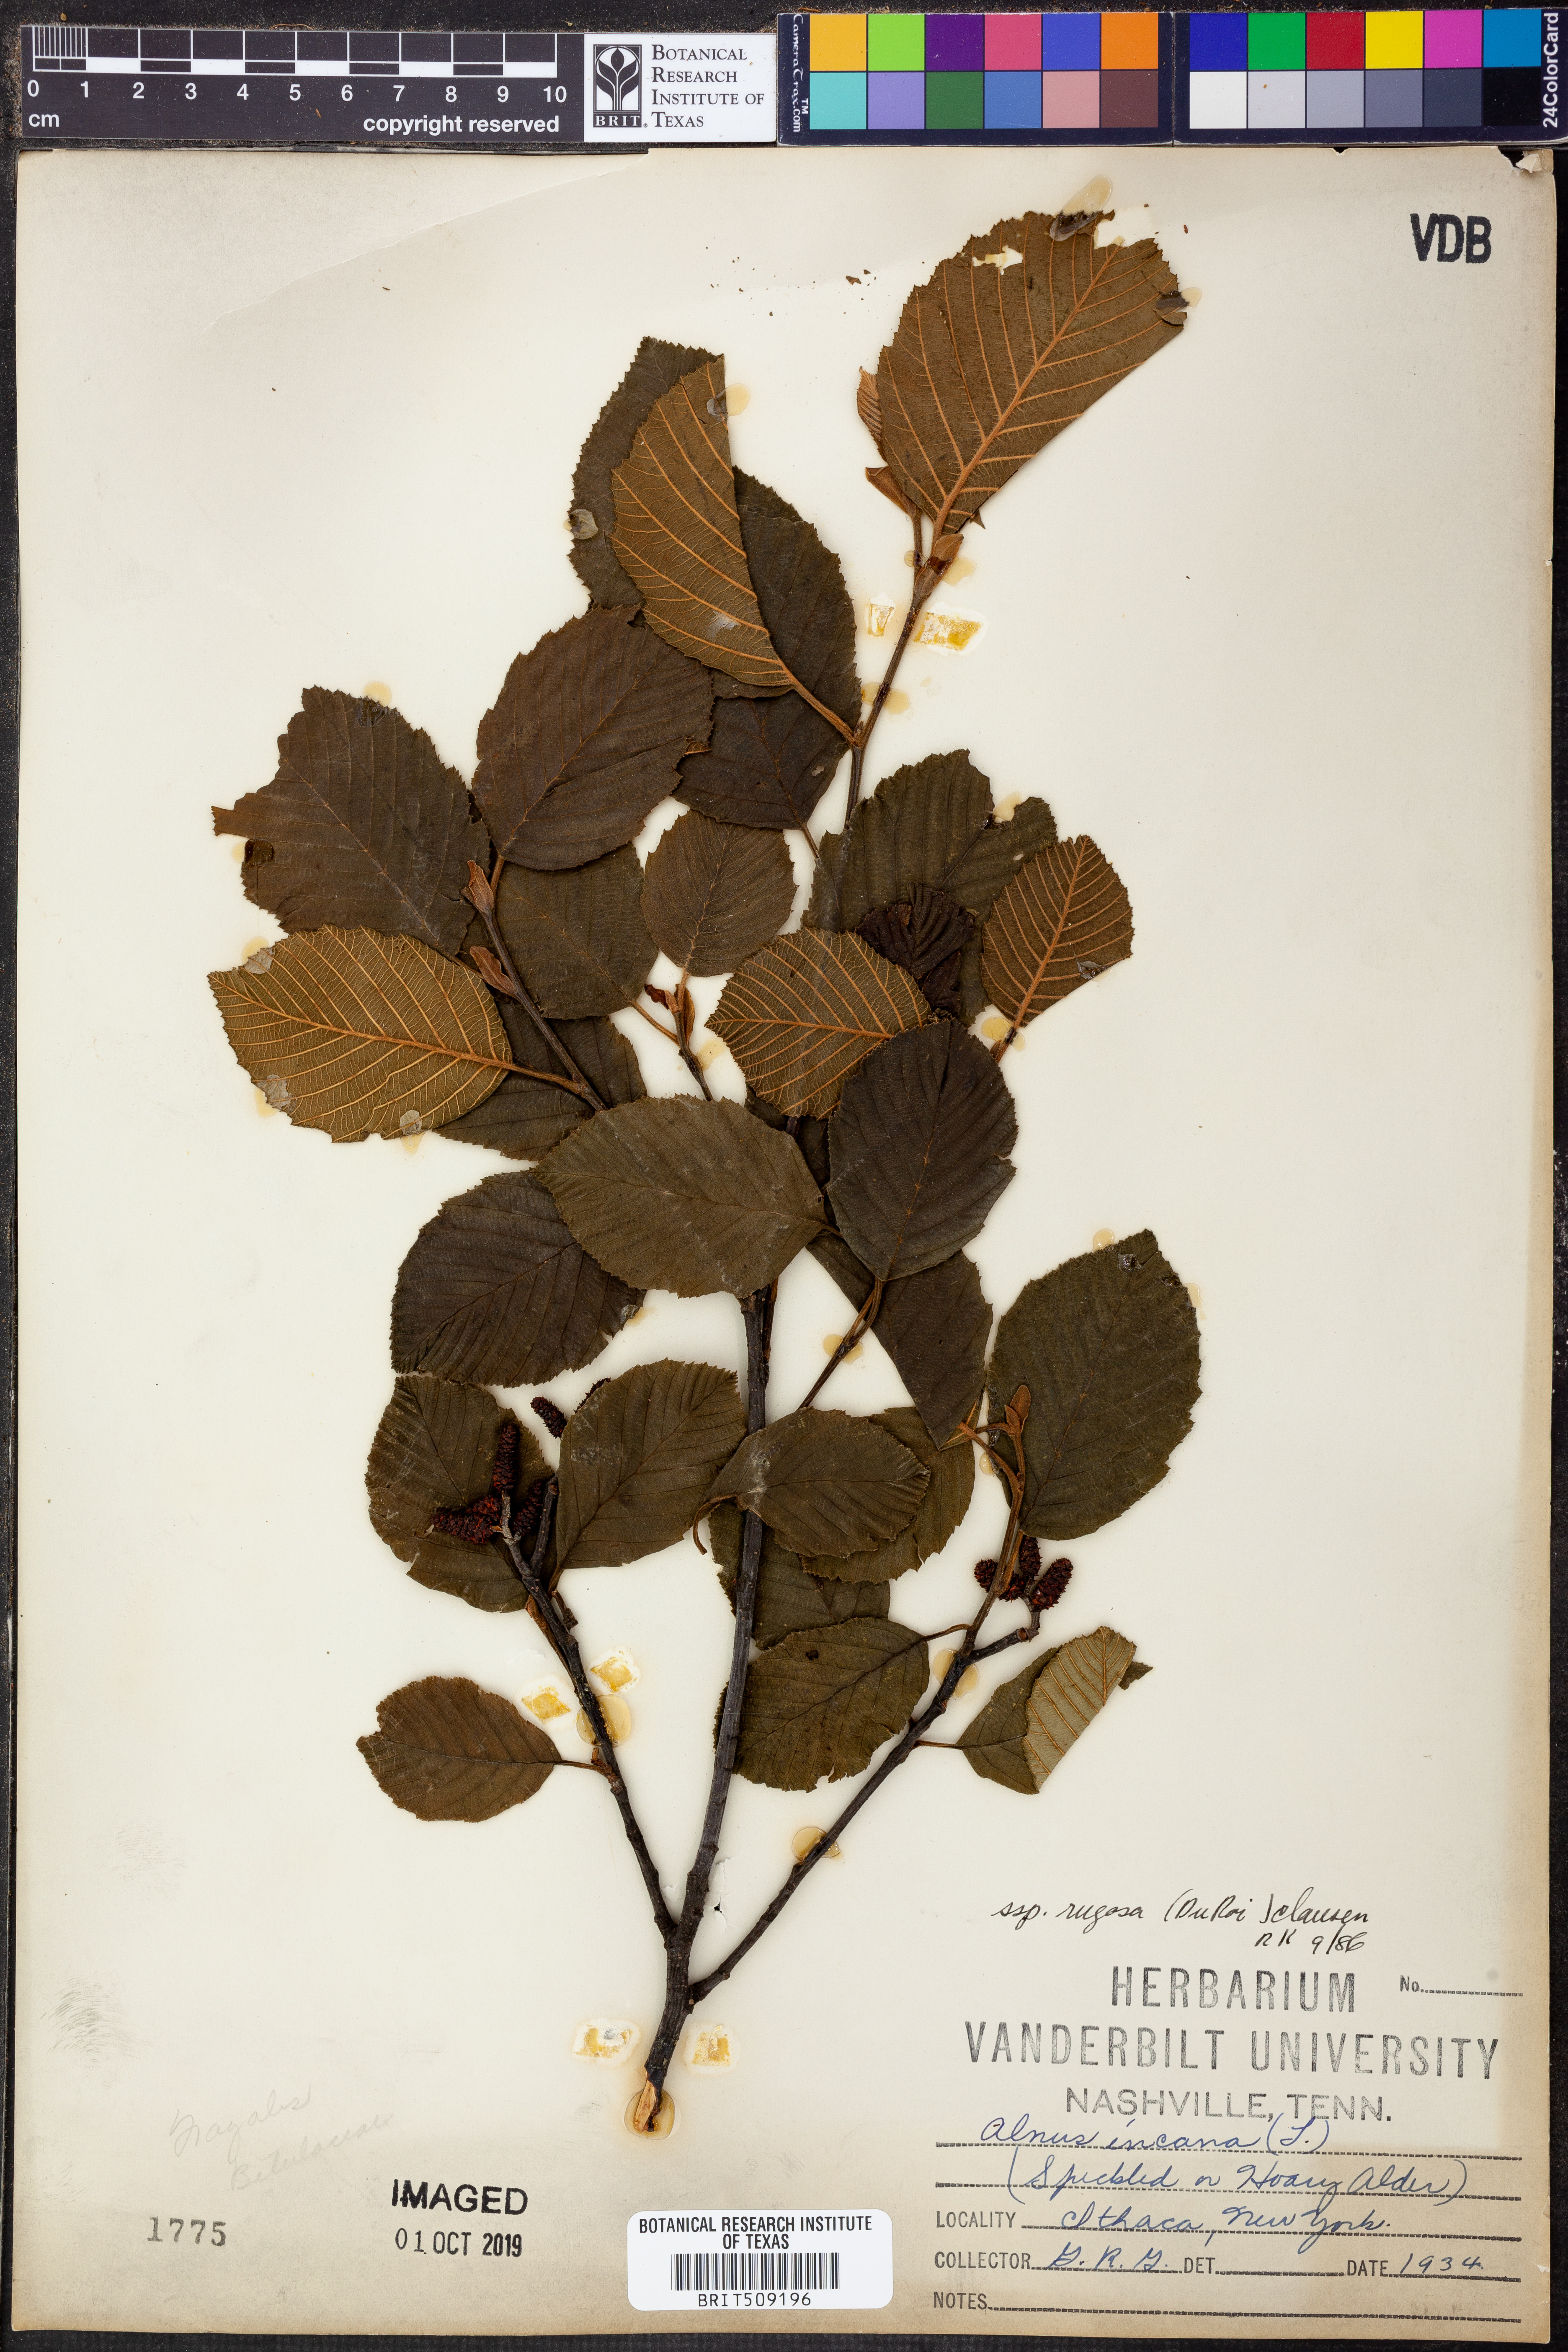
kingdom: Plantae
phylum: Tracheophyta
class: Magnoliopsida
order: Fagales
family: Betulaceae
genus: Alnus
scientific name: Alnus incana
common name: Grey alder
